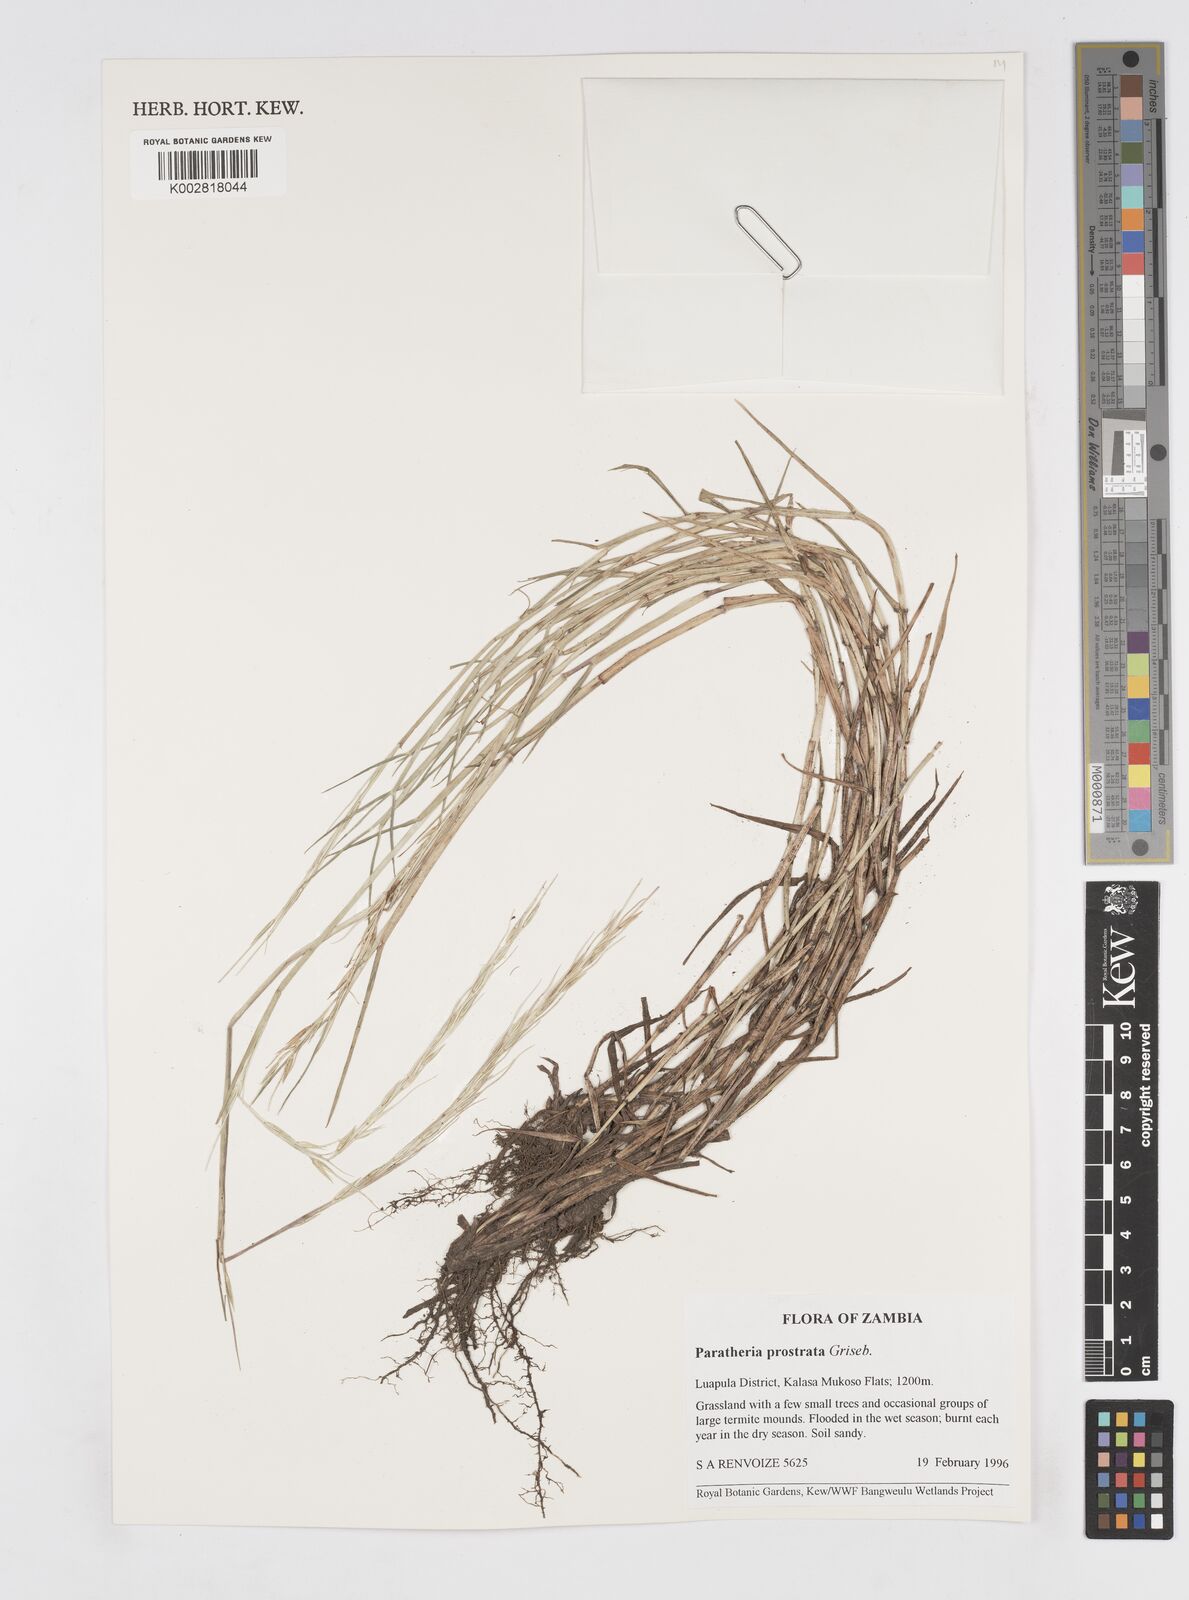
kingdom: Plantae
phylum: Tracheophyta
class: Liliopsida
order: Poales
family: Poaceae
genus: Paratheria
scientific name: Paratheria prostrata
